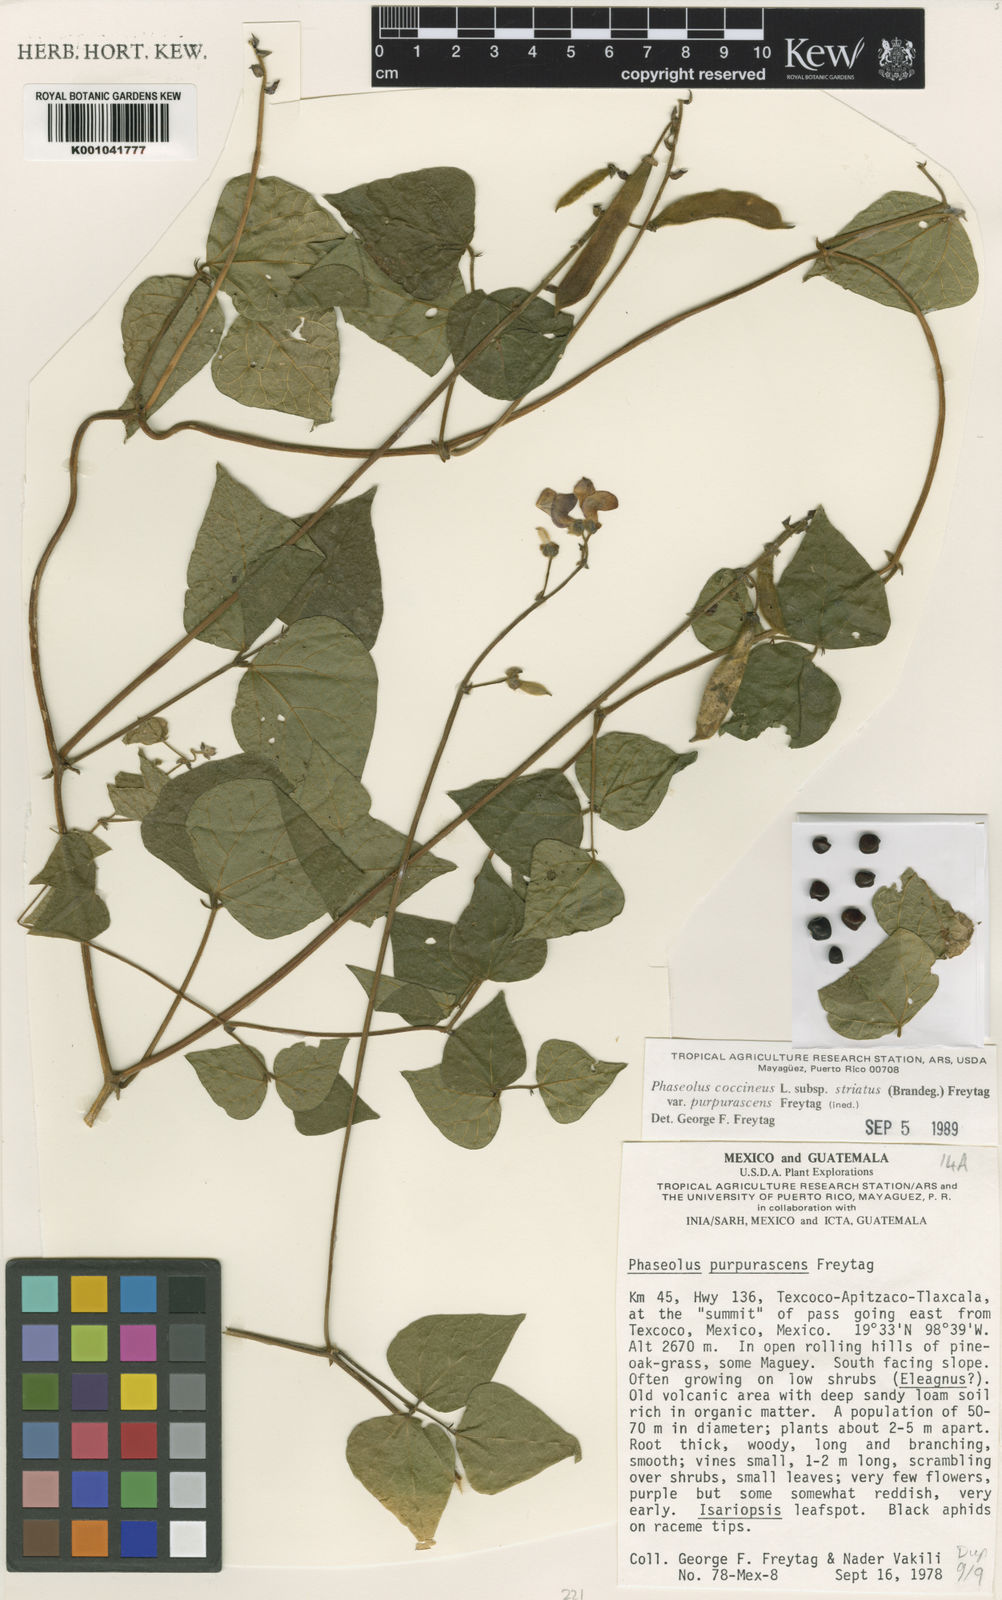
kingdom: Plantae
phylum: Tracheophyta
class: Magnoliopsida
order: Fabales
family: Fabaceae
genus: Phaseolus
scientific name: Phaseolus coccineus
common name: Runner bean
